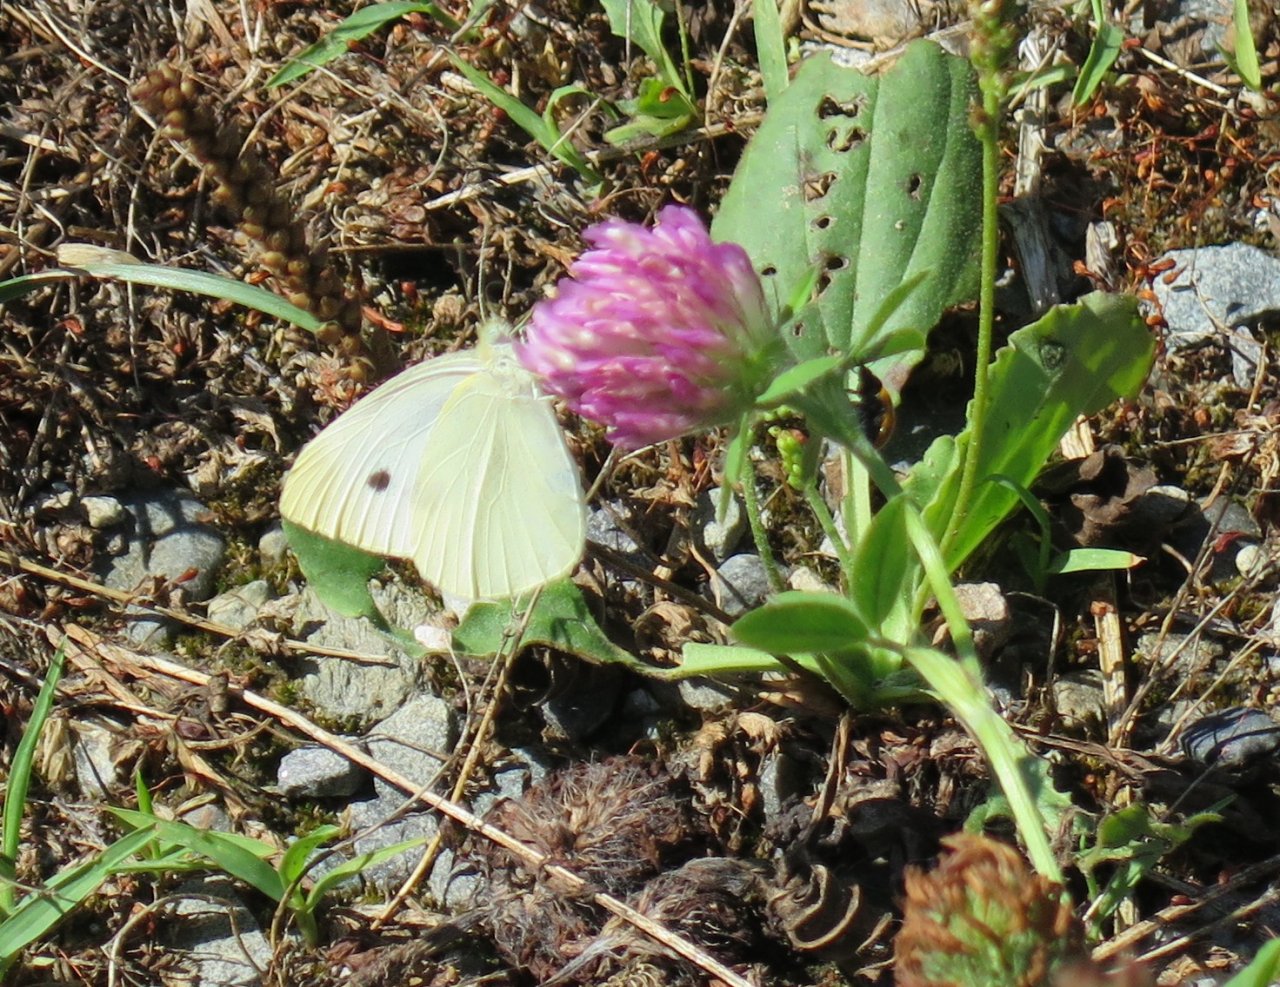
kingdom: Animalia
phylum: Arthropoda
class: Insecta
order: Lepidoptera
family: Pieridae
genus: Pieris
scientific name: Pieris rapae
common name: Cabbage White
